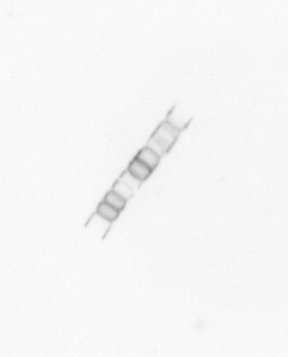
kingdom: Chromista
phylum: Ochrophyta
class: Bacillariophyceae
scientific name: Bacillariophyceae
